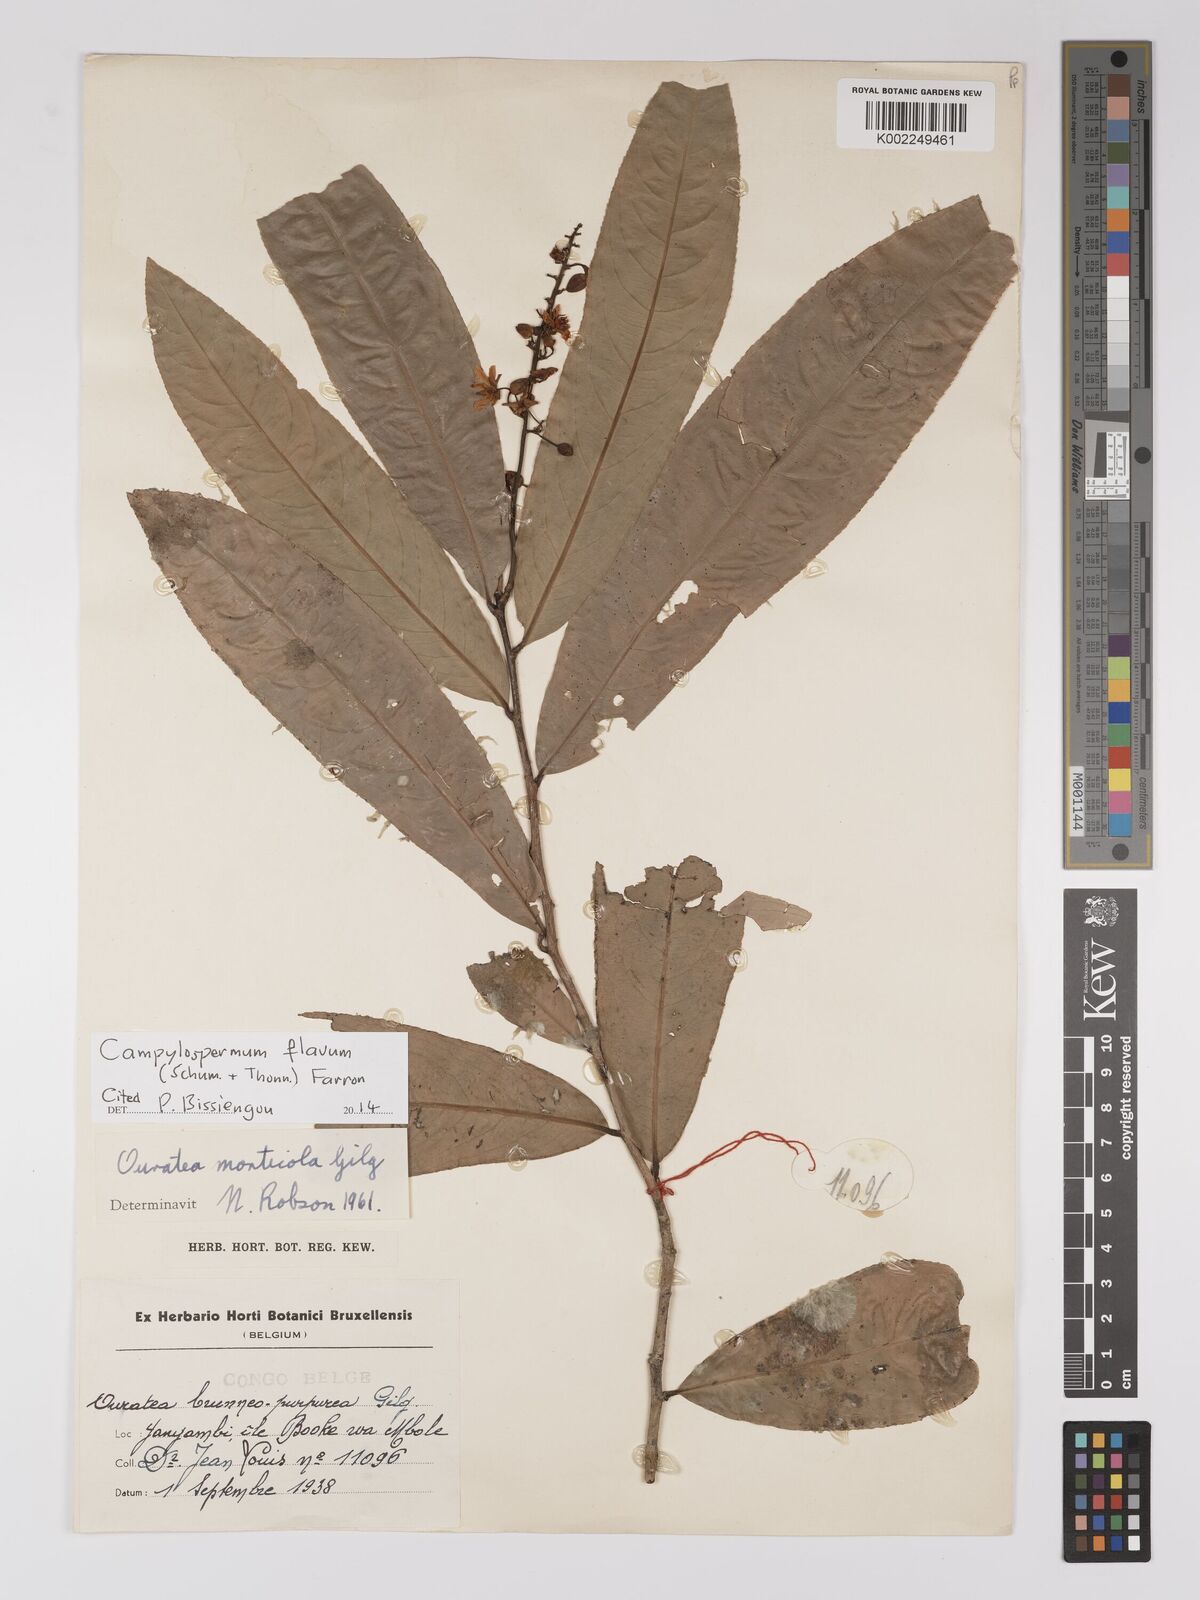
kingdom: Plantae
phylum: Tracheophyta
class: Magnoliopsida
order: Malpighiales
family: Ochnaceae
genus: Campylospermum
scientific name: Campylospermum flavum
